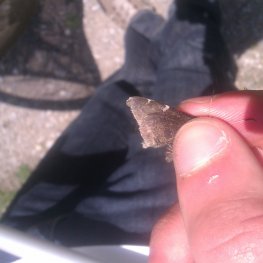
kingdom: Animalia
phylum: Arthropoda
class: Insecta
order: Lepidoptera
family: Hesperiidae
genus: Autochton
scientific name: Autochton
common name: Northern Cloudywing
